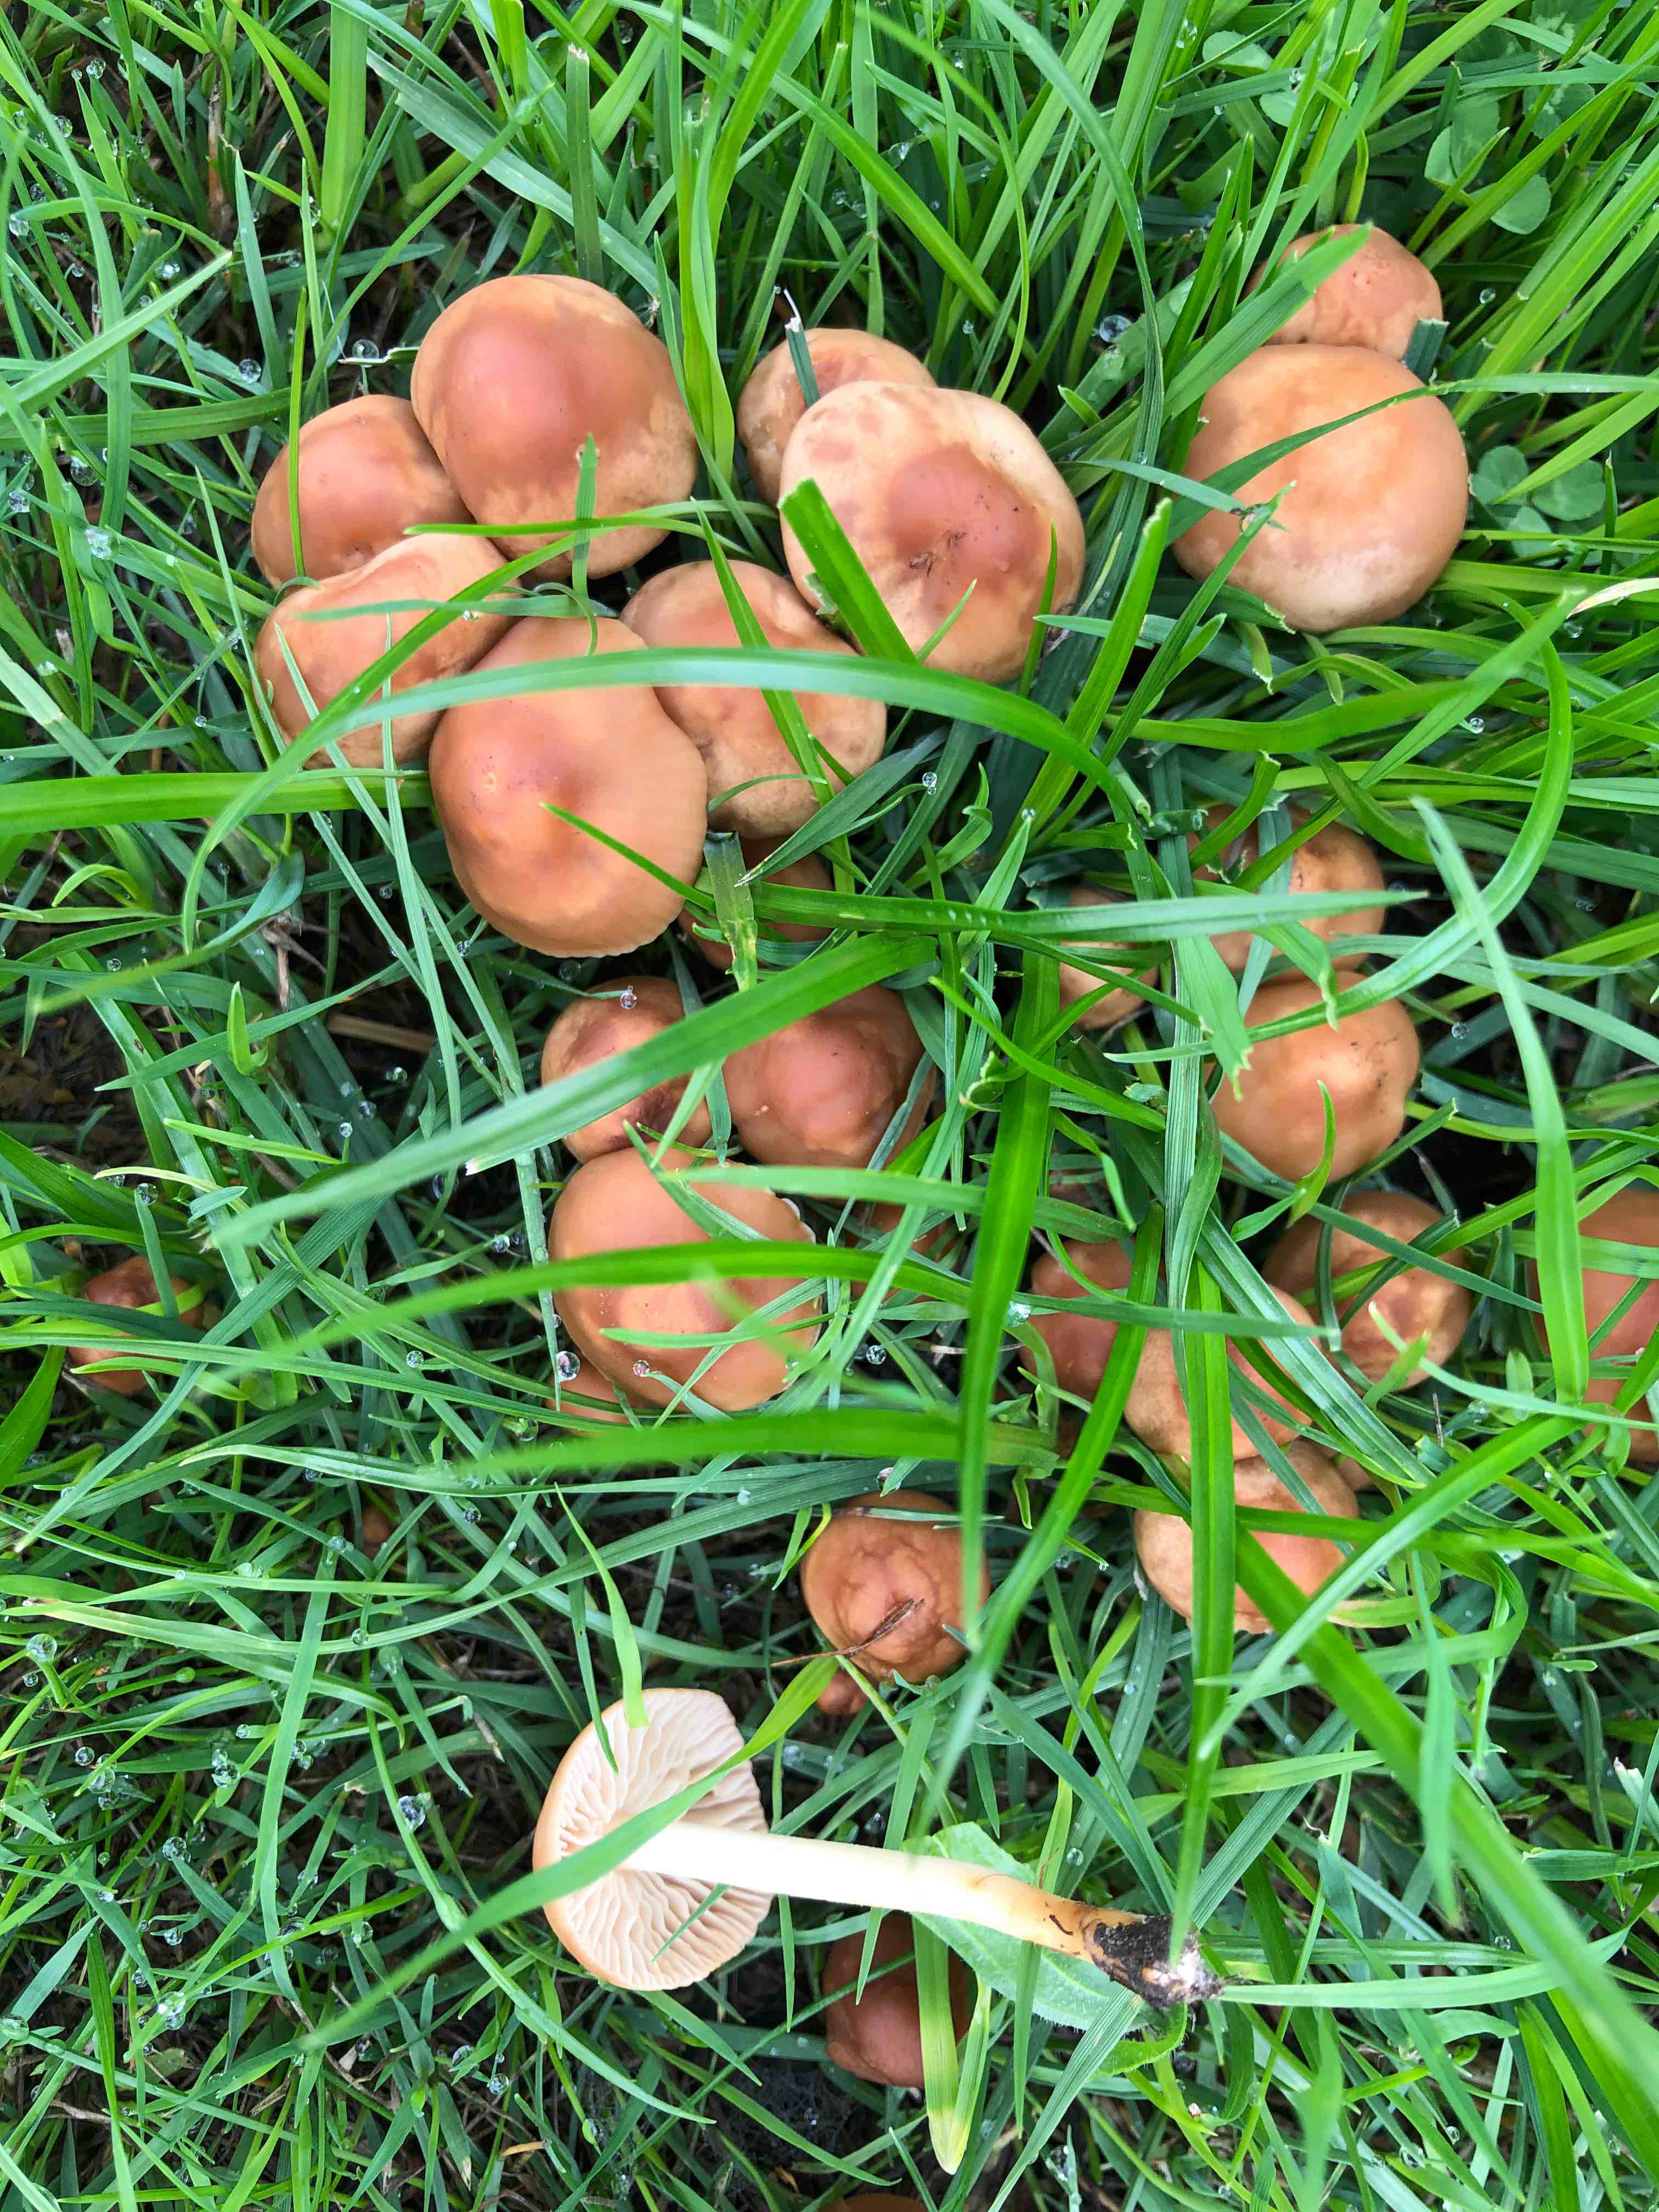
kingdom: Fungi
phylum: Basidiomycota
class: Agaricomycetes
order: Agaricales
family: Marasmiaceae
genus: Marasmius
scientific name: Marasmius oreades
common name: elledans-bruskhat
